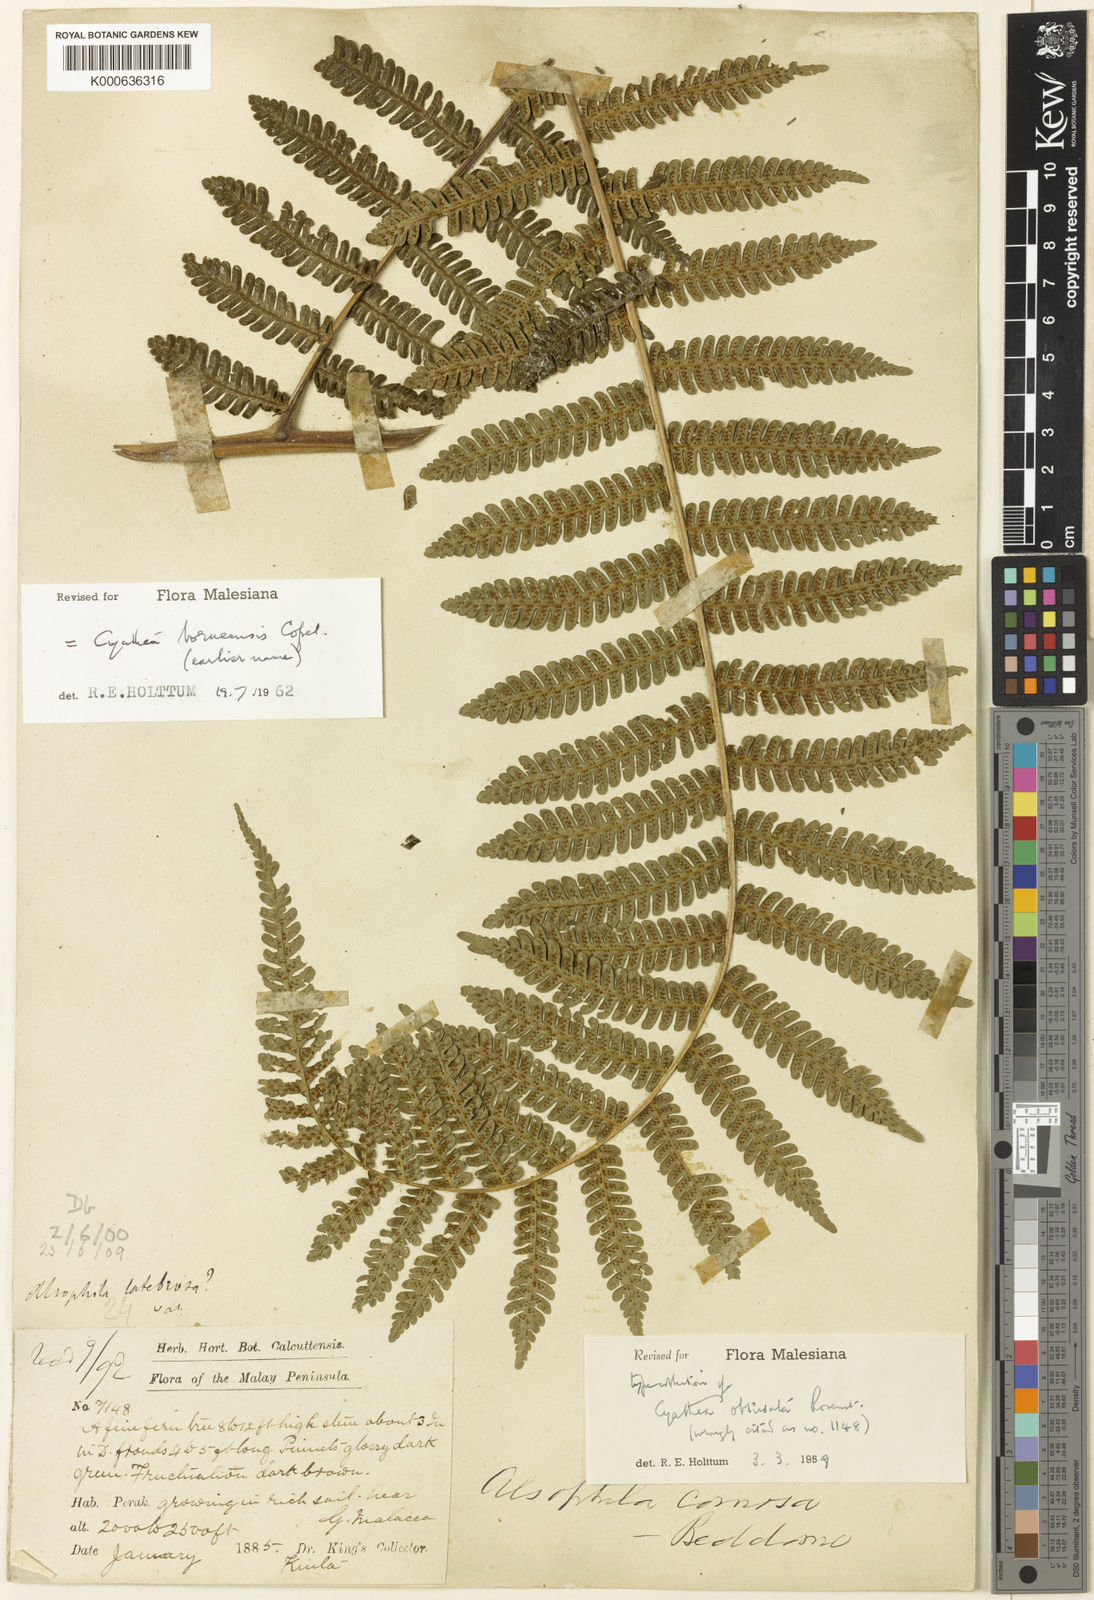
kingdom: Plantae
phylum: Tracheophyta
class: Polypodiopsida
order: Cyatheales
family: Cyatheaceae
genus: Alsophila
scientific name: Alsophila borneensis
